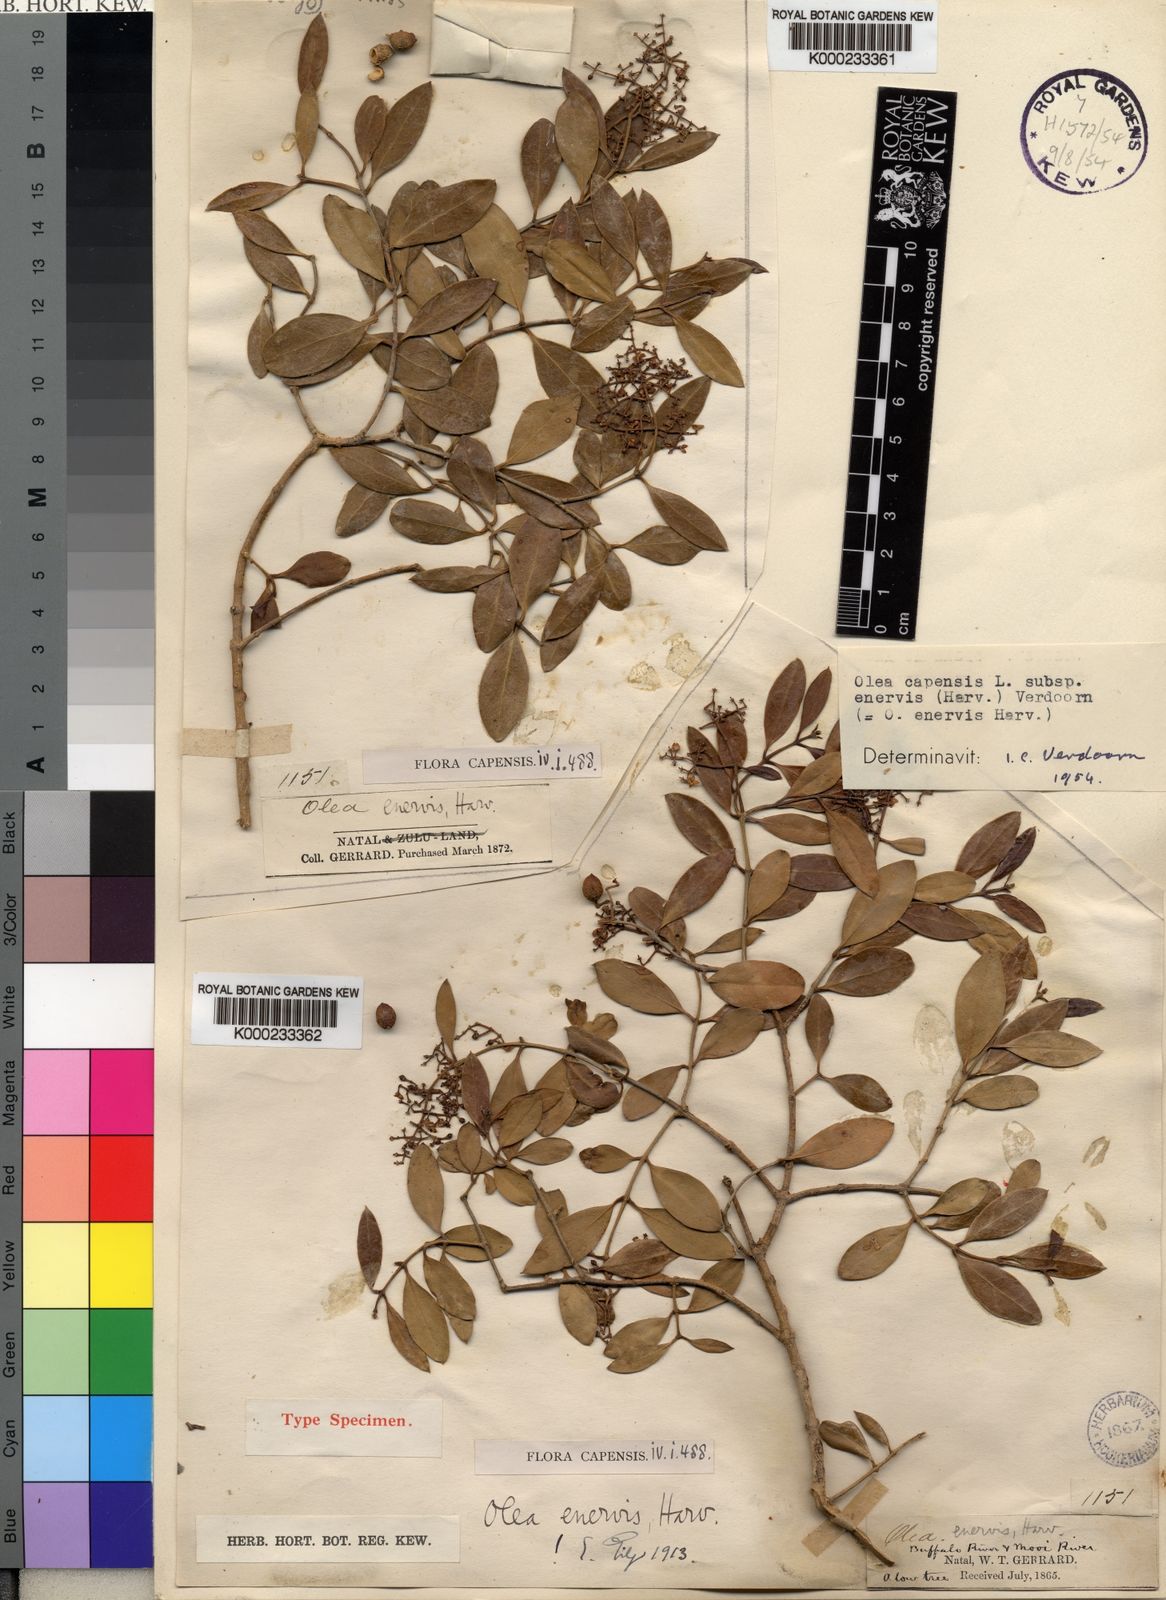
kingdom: Plantae
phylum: Tracheophyta
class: Magnoliopsida
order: Lamiales
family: Oleaceae
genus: Olea
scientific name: Olea capensis
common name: Black ironwood
